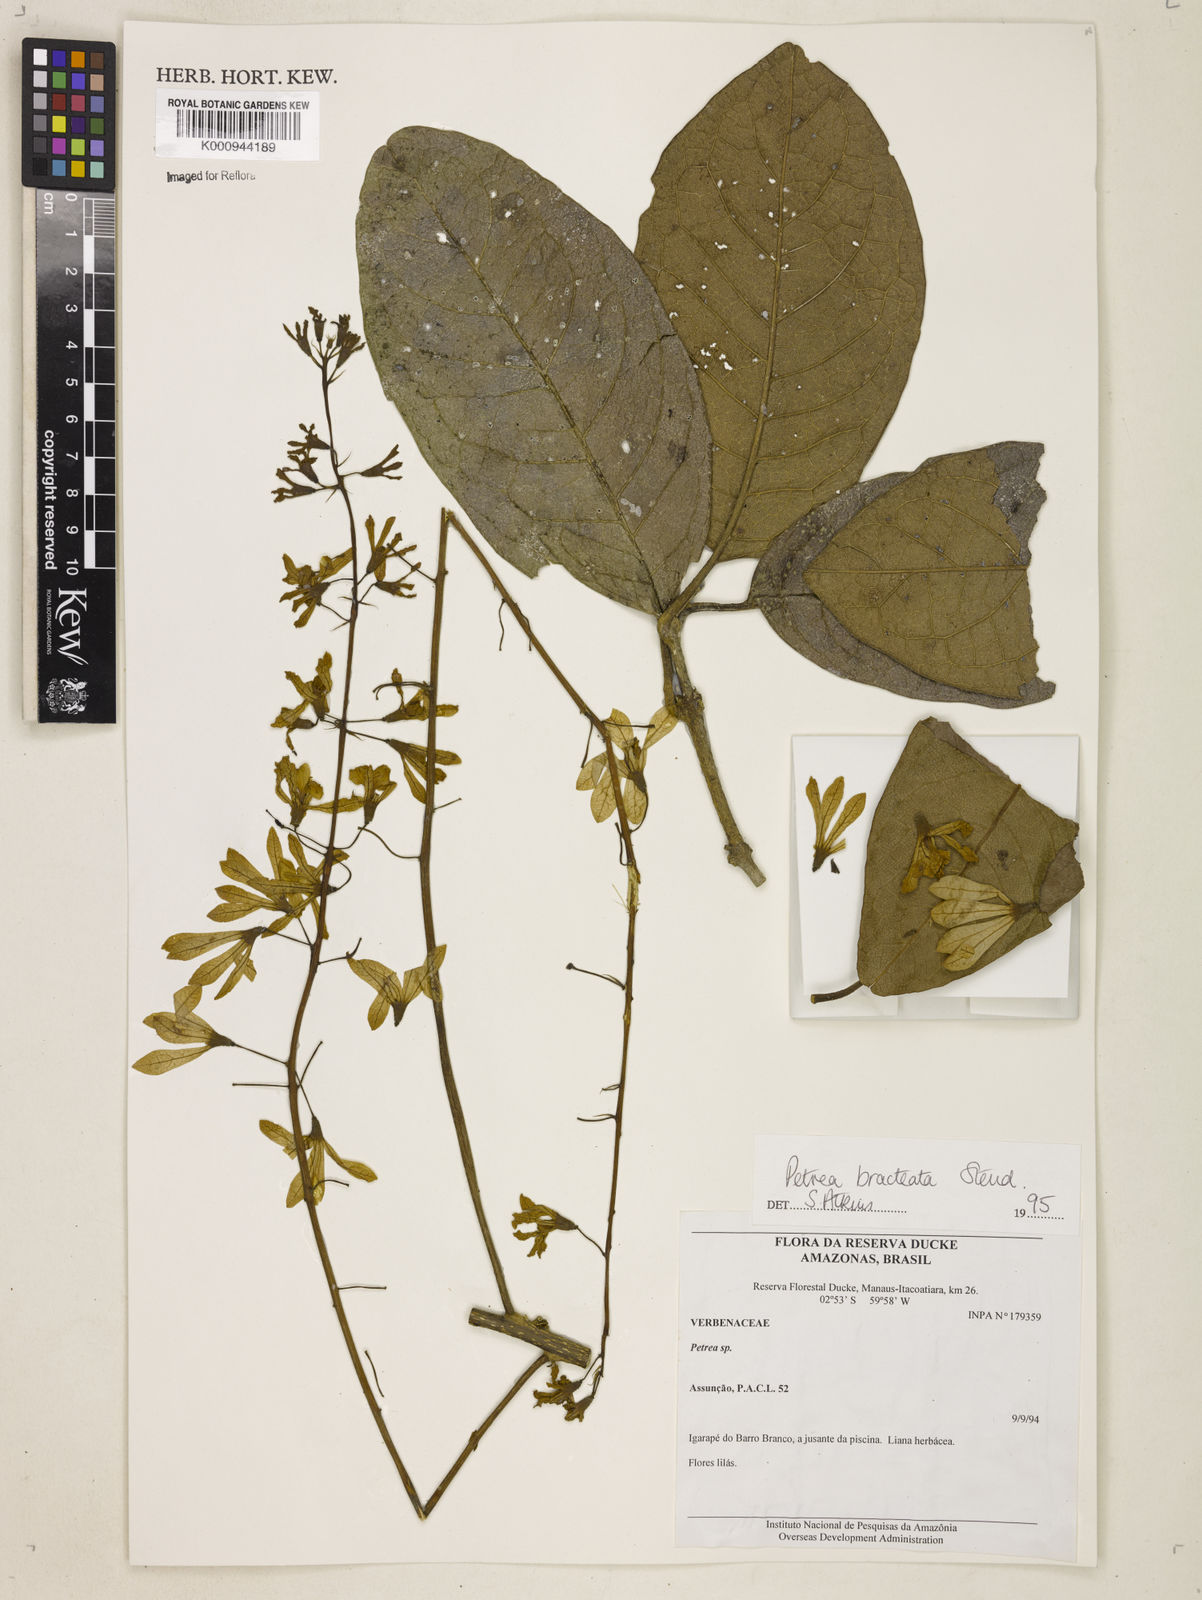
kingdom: Plantae
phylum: Tracheophyta
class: Magnoliopsida
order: Lamiales
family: Verbenaceae
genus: Petrea
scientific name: Petrea bracteata
